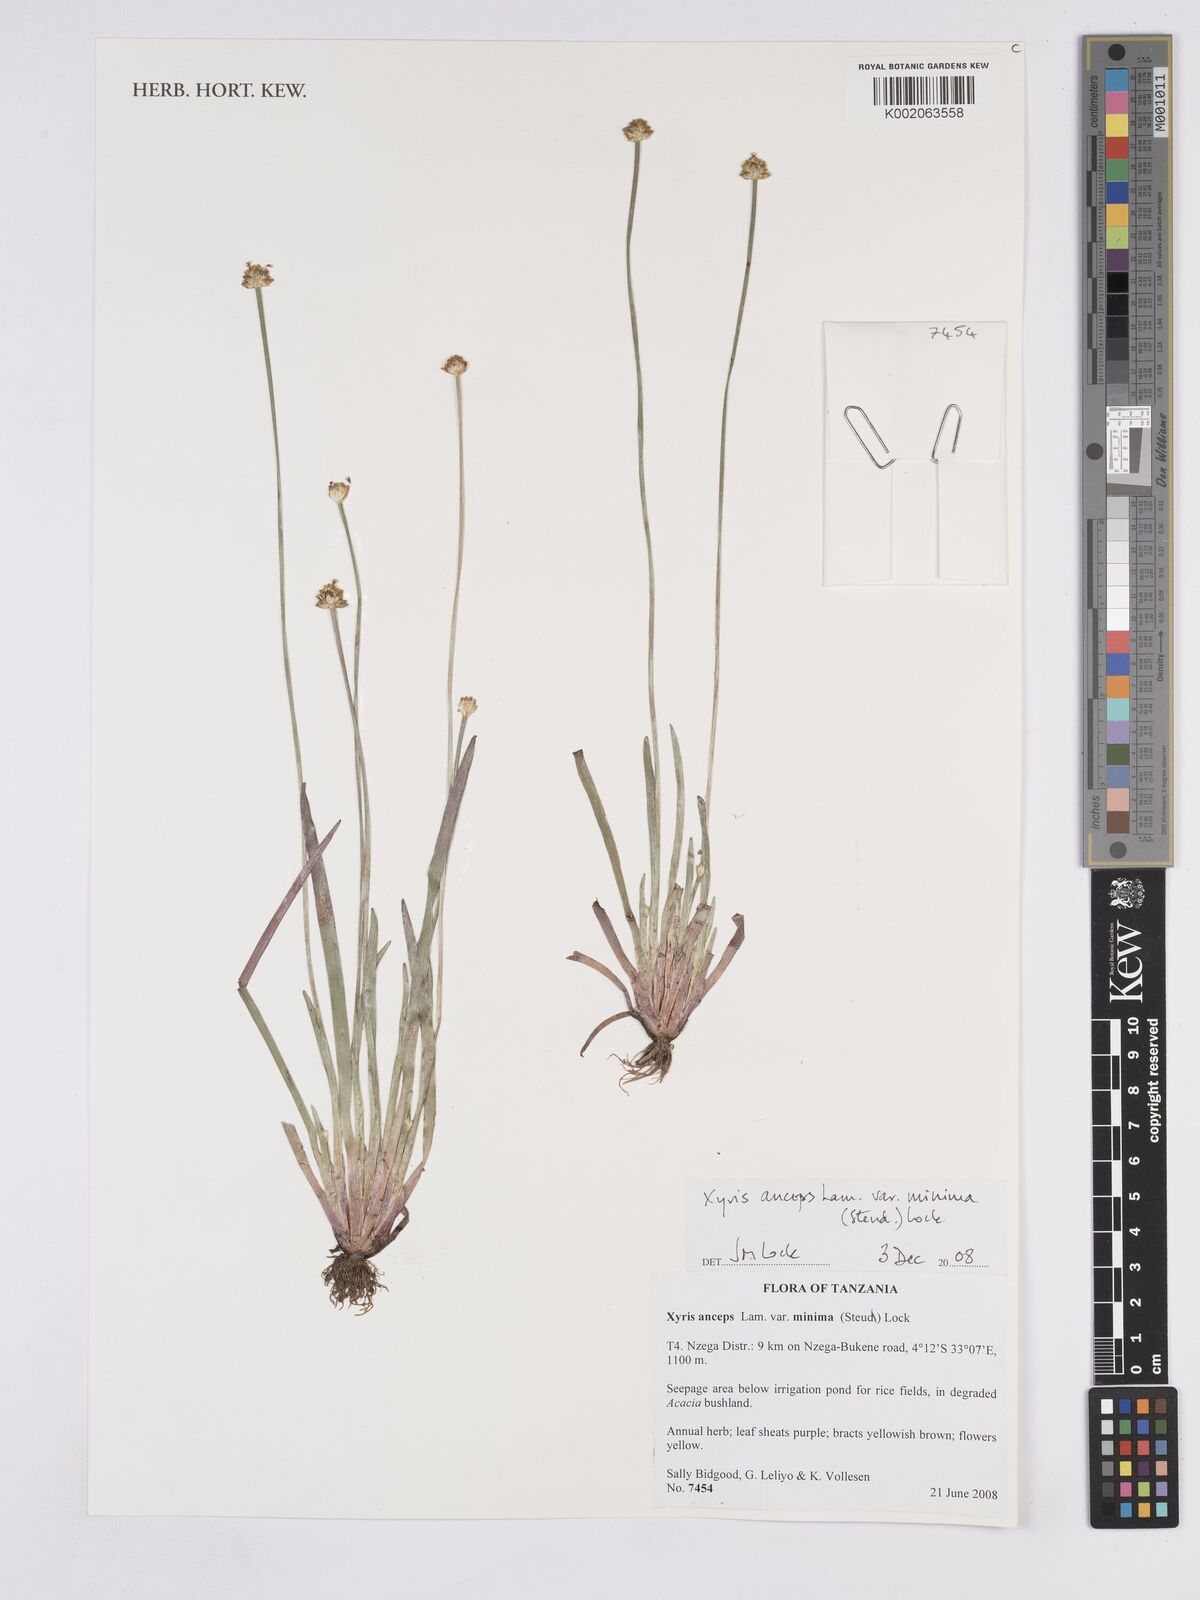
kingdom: Plantae
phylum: Tracheophyta
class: Liliopsida
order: Poales
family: Xyridaceae
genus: Xyris
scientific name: Xyris anceps
